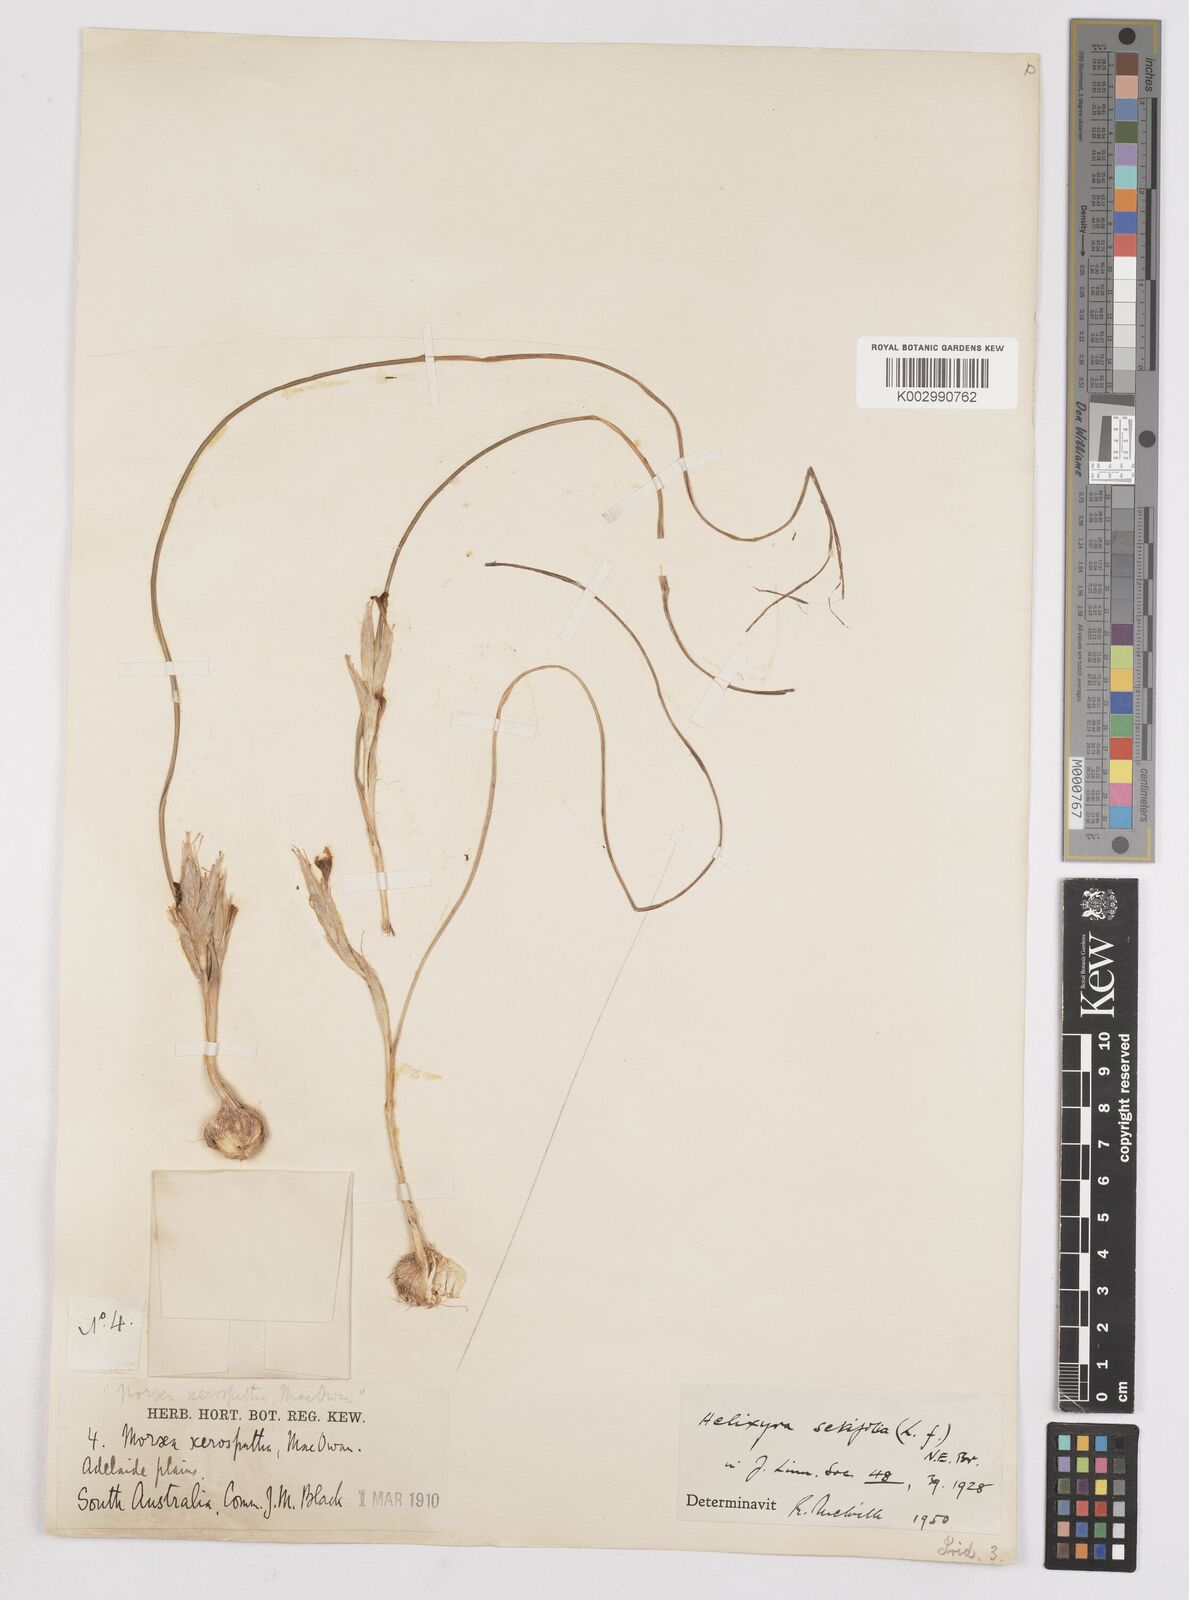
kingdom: Plantae
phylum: Tracheophyta
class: Liliopsida
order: Asparagales
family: Iridaceae
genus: Moraea
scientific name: Moraea setifolia
